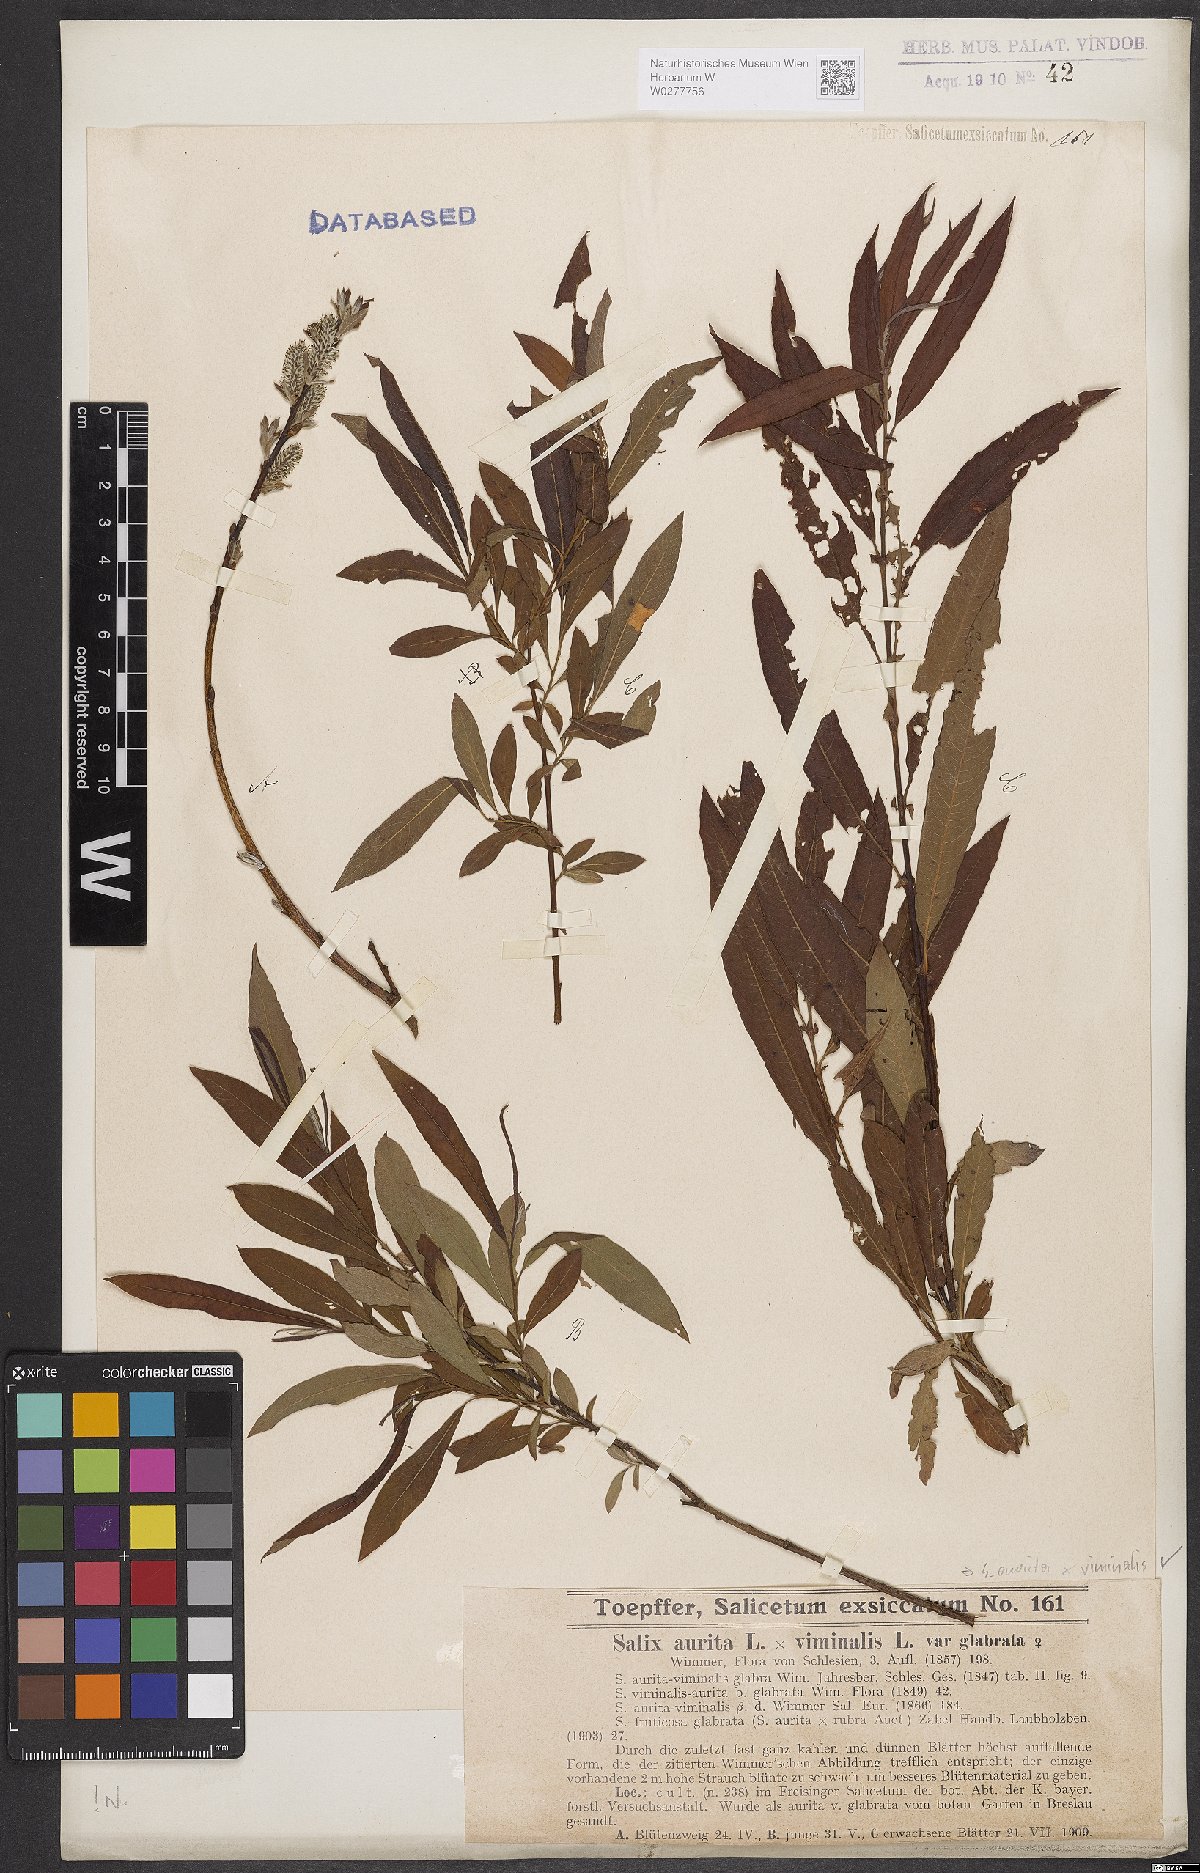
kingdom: Plantae
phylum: Tracheophyta
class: Magnoliopsida
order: Malpighiales
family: Salicaceae
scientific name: Salicaceae
